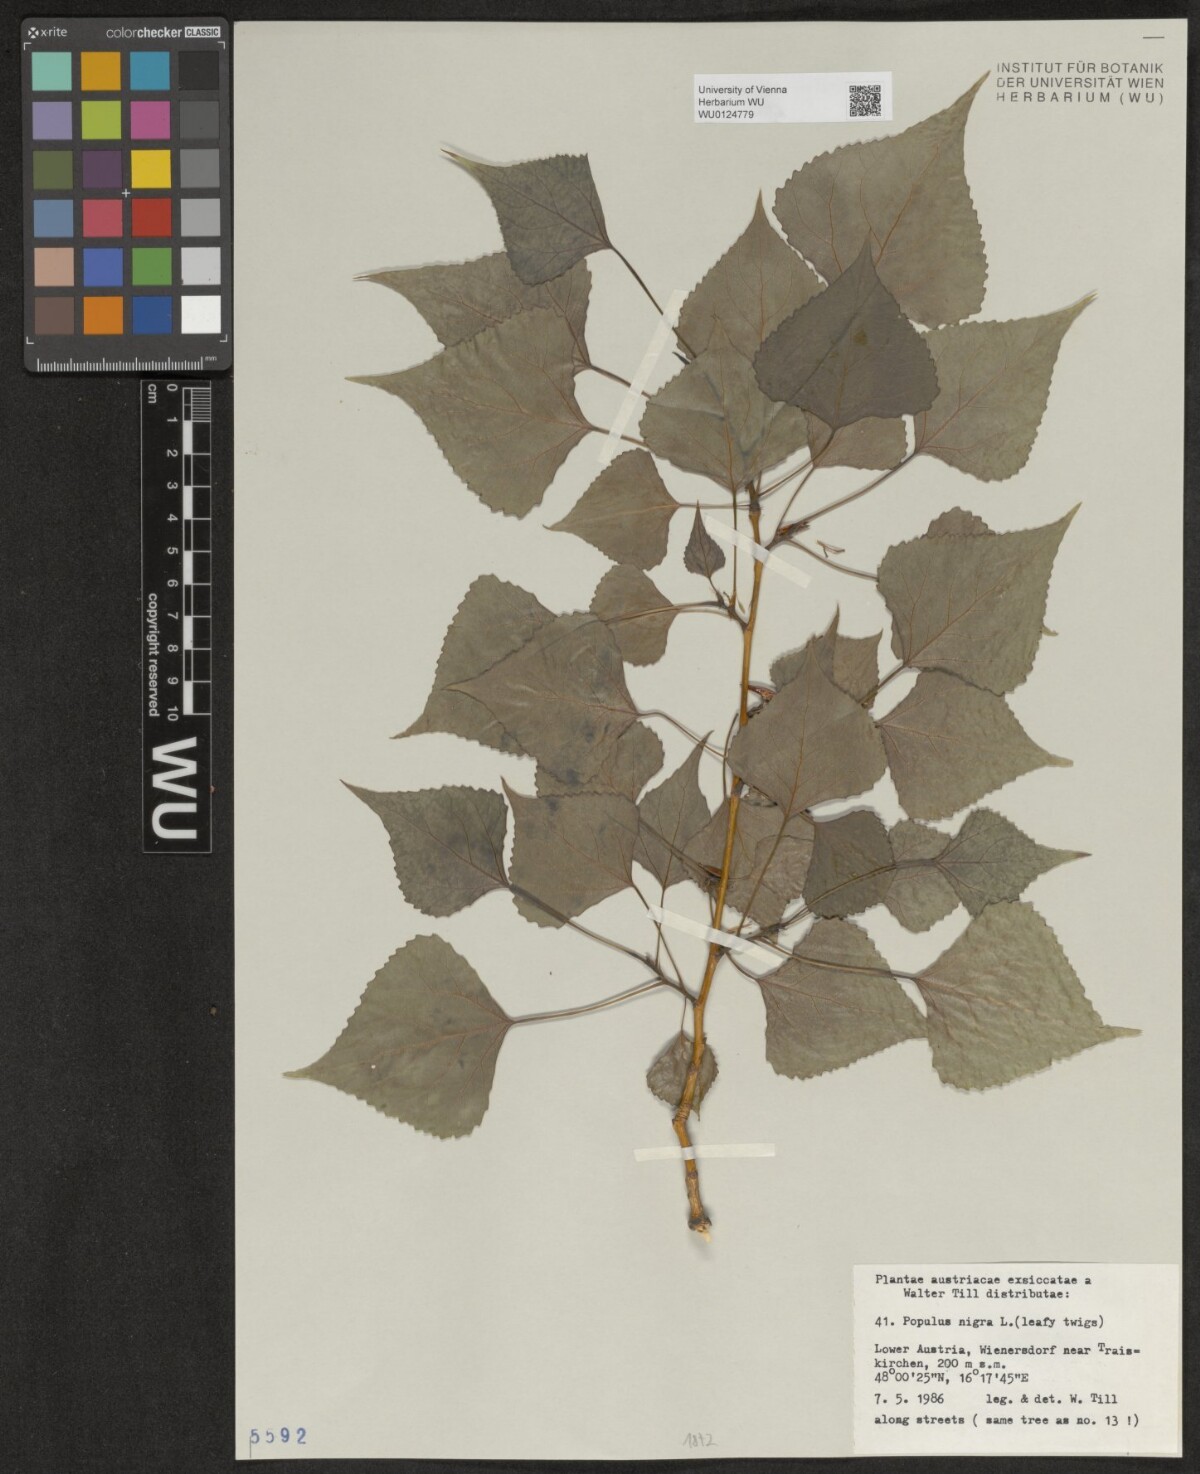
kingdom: Plantae
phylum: Tracheophyta
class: Magnoliopsida
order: Malpighiales
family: Salicaceae
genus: Populus
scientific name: Populus nigra
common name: Black poplar
